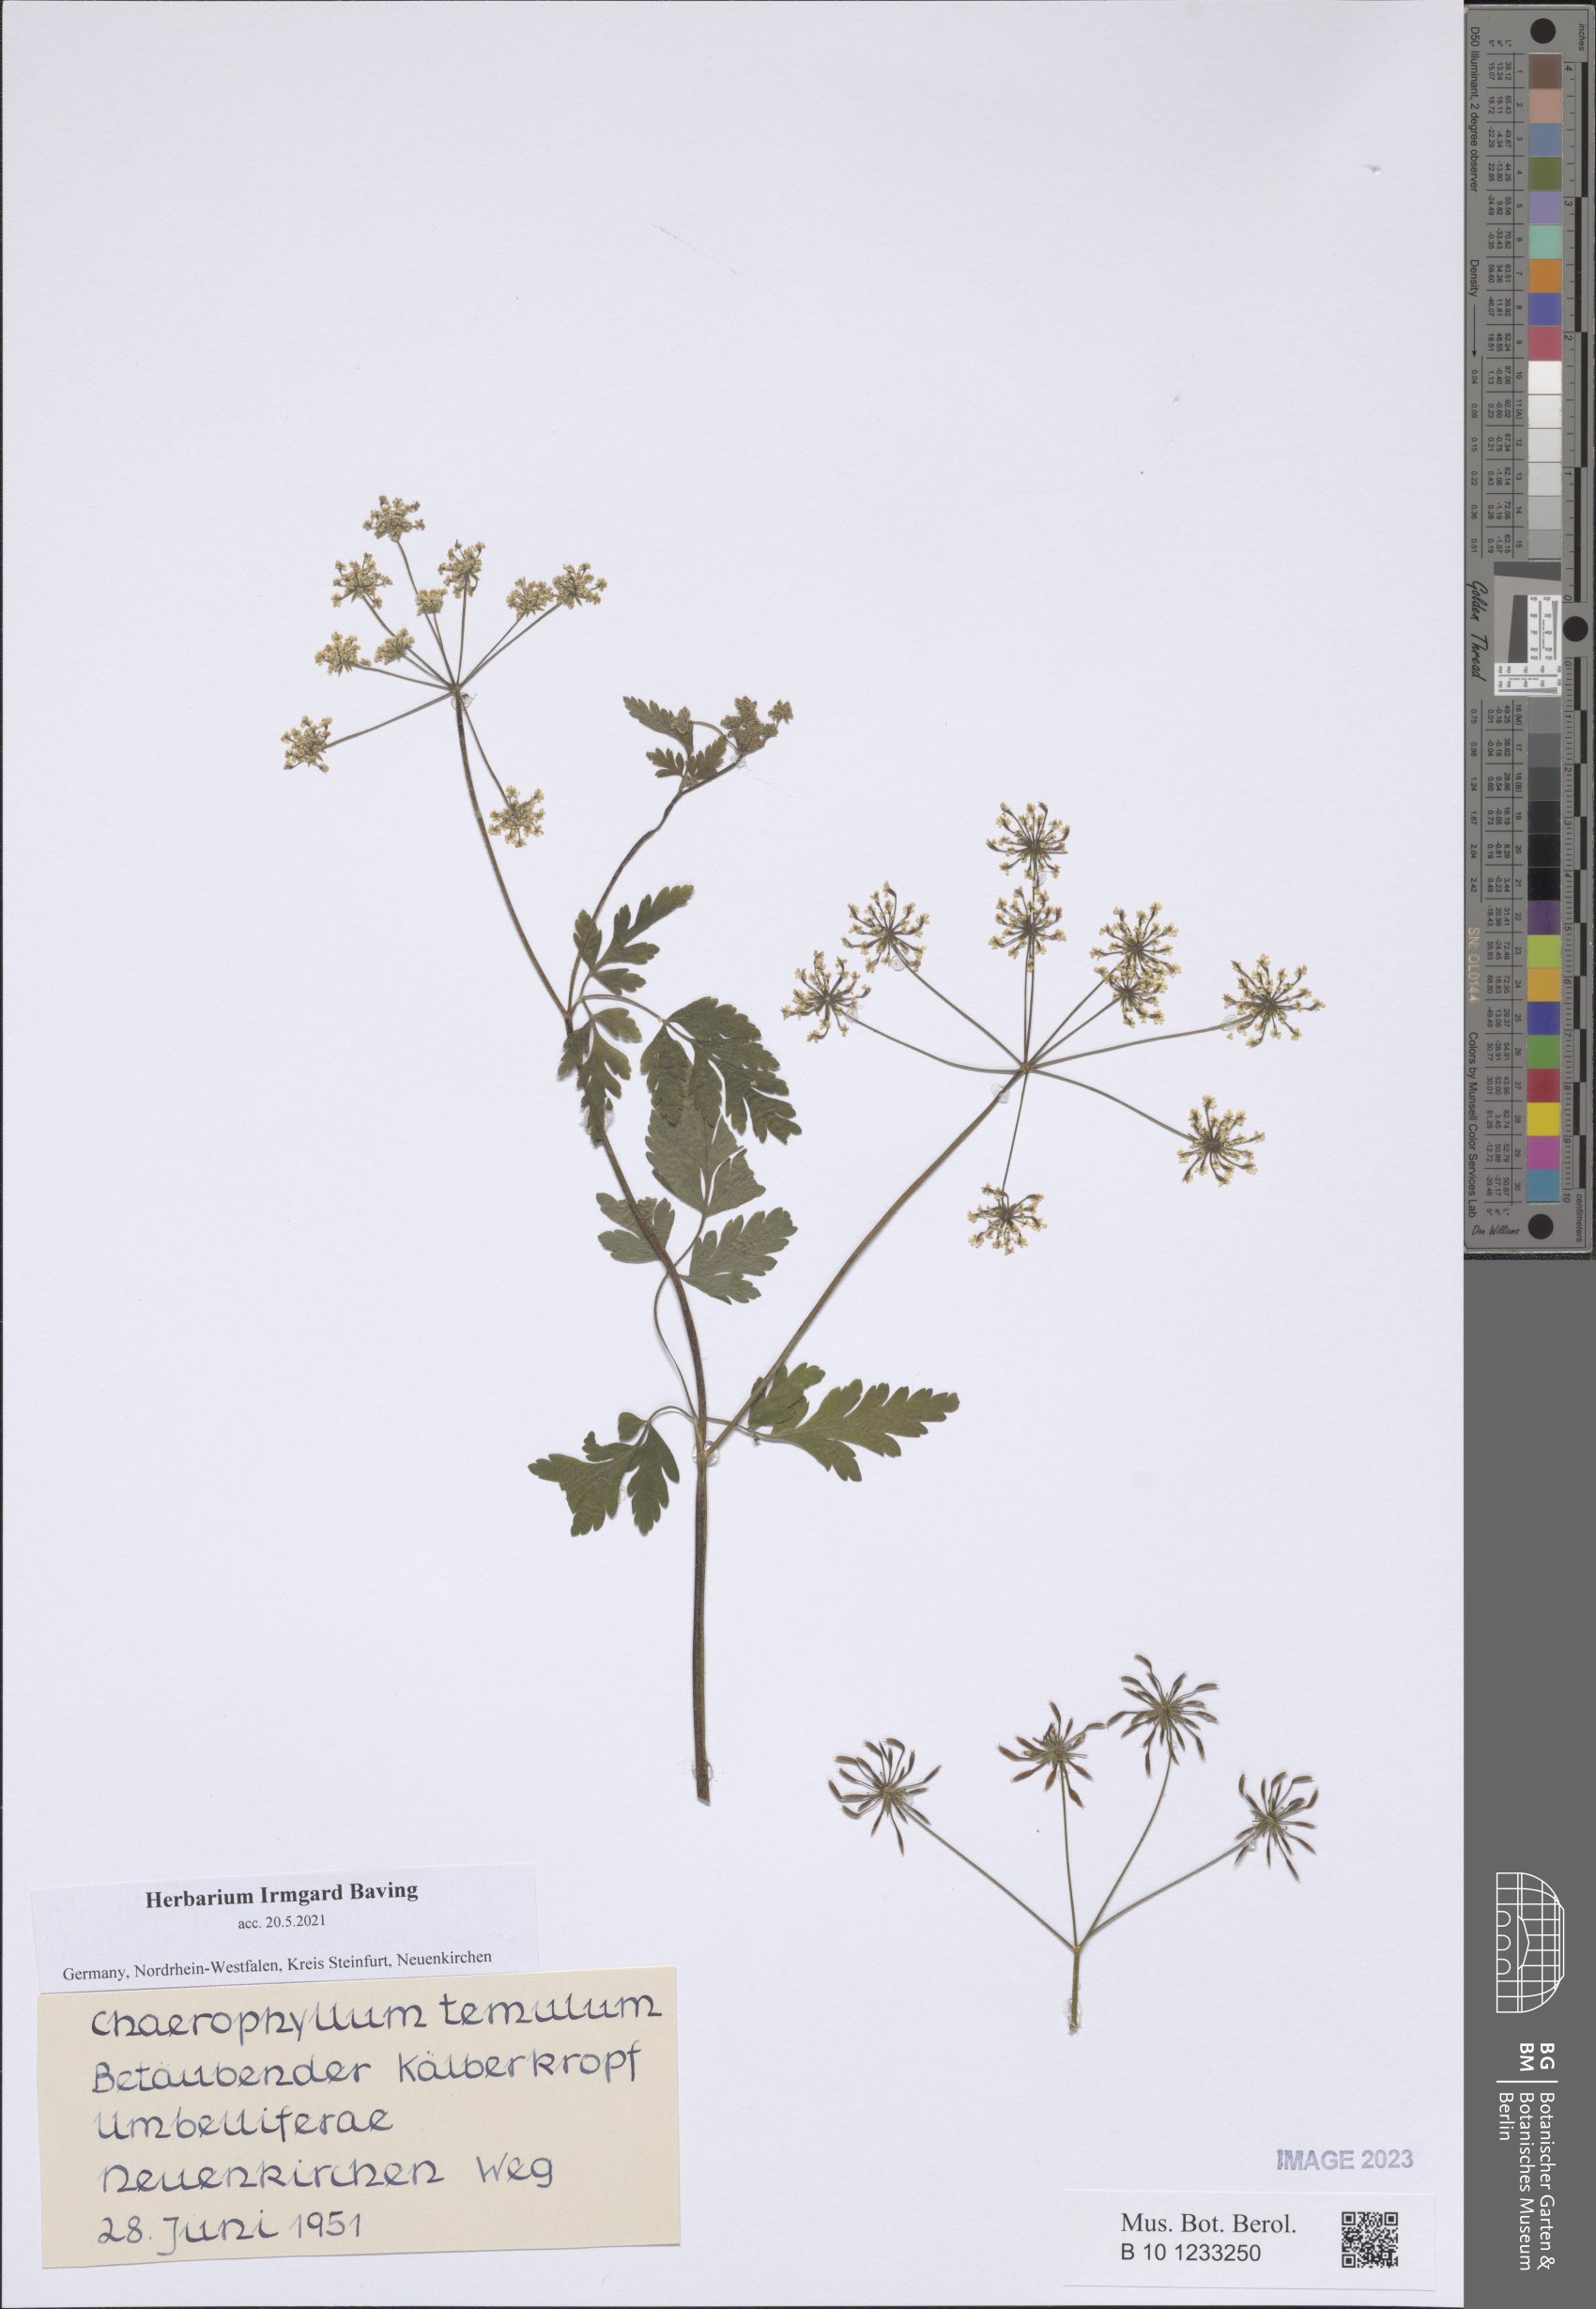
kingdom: Plantae
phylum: Tracheophyta
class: Magnoliopsida
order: Apiales
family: Apiaceae
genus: Chaerophyllum
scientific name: Chaerophyllum temulum
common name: Rough chervil
